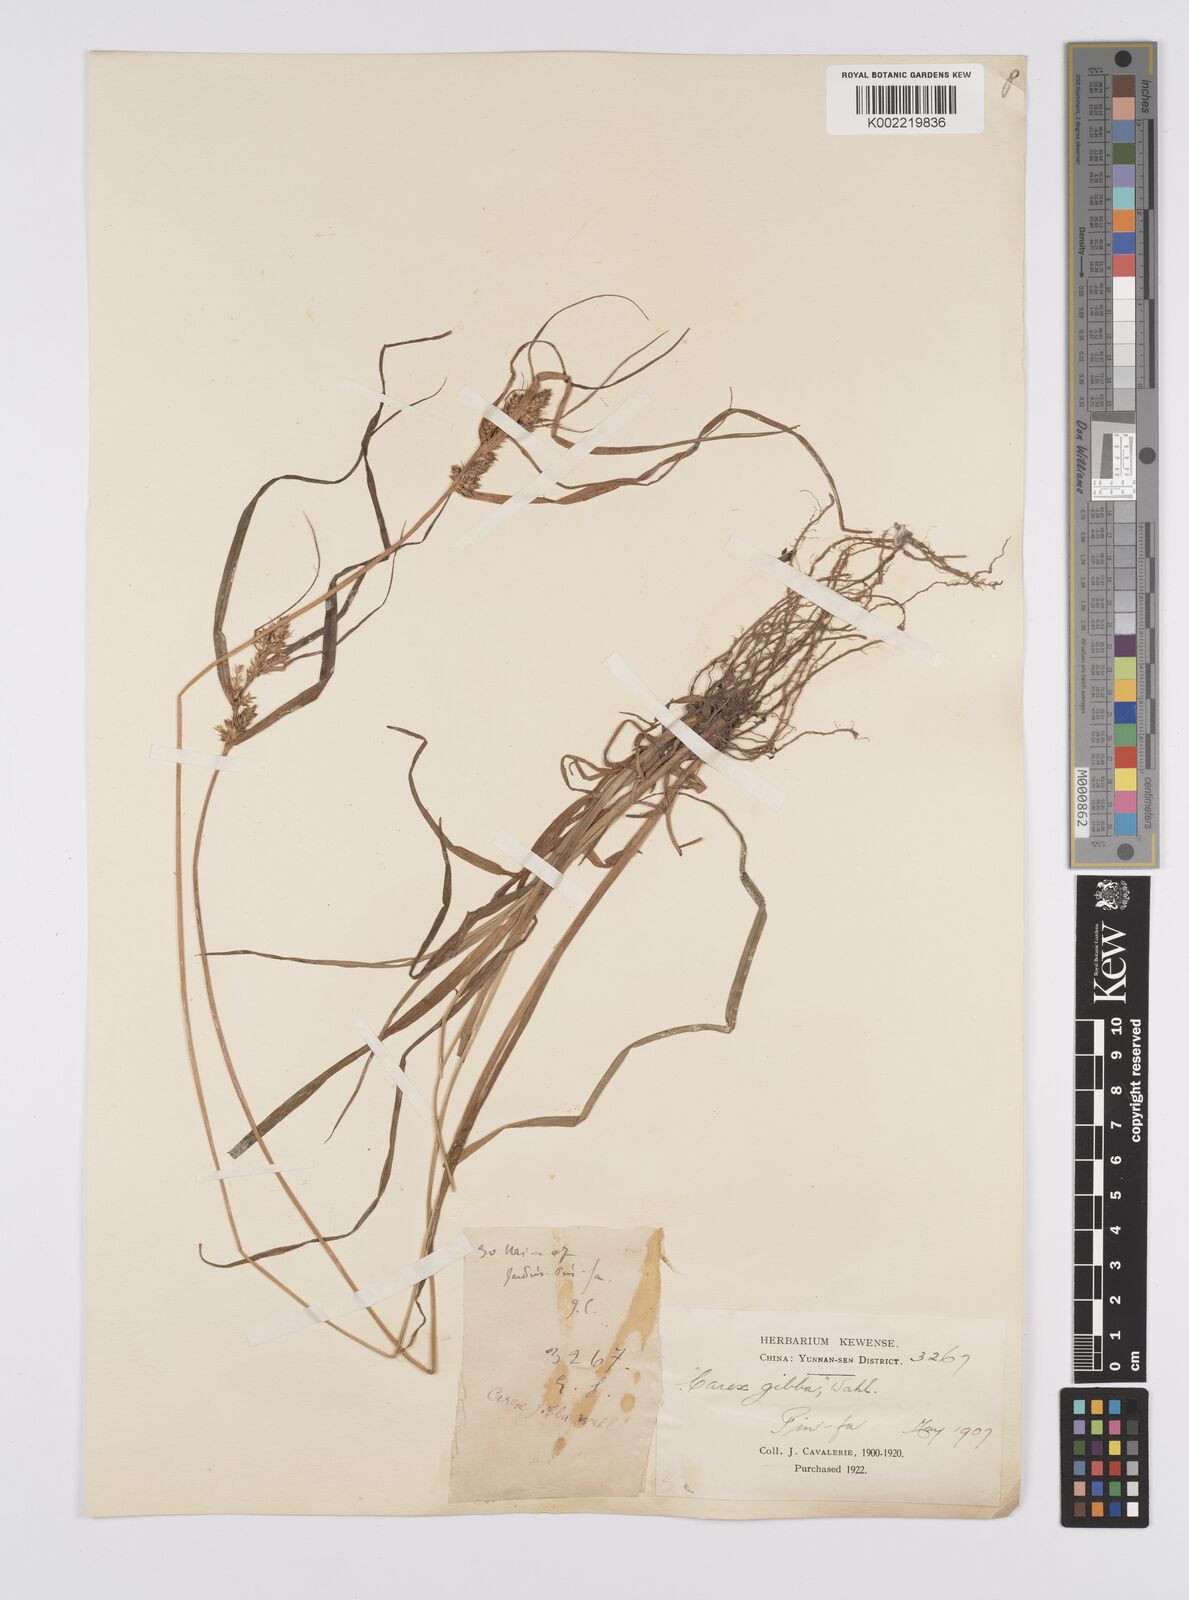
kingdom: Plantae
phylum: Tracheophyta
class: Liliopsida
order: Poales
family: Cyperaceae
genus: Carex
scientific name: Carex gibba
